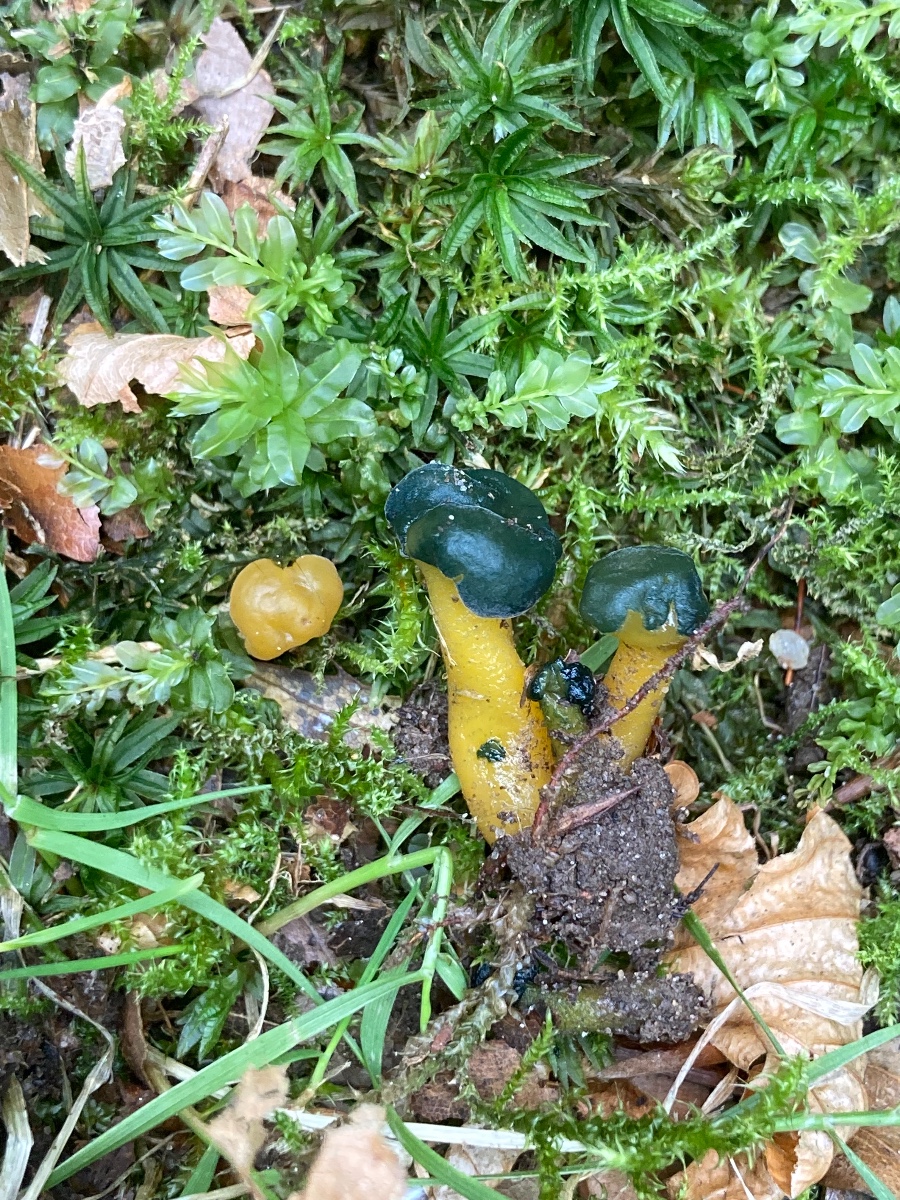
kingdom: Fungi
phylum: Ascomycota
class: Sordariomycetes
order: Hypocreales
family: Hypocreaceae
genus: Hypomyces
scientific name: Hypomyces leotiicola
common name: ravsvamp-snylteskorpe
